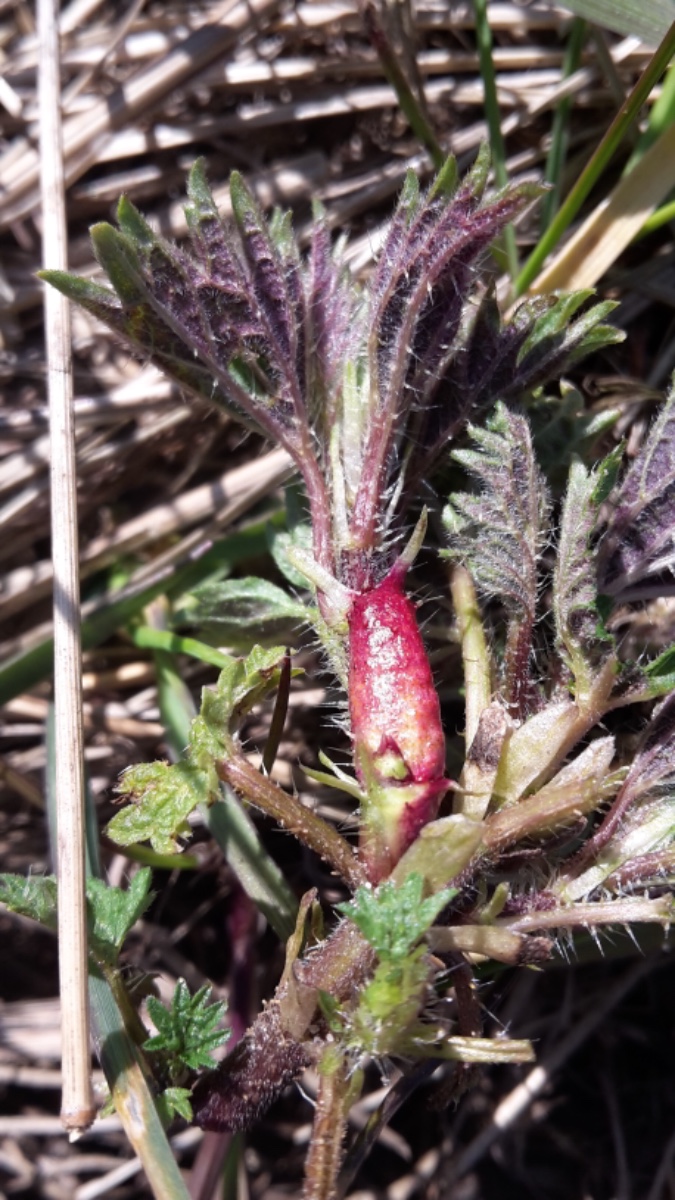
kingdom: Fungi
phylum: Basidiomycota
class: Pucciniomycetes
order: Pucciniales
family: Pucciniaceae
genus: Puccinia
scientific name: Puccinia urticata
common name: nældegalle-tvecellerust
